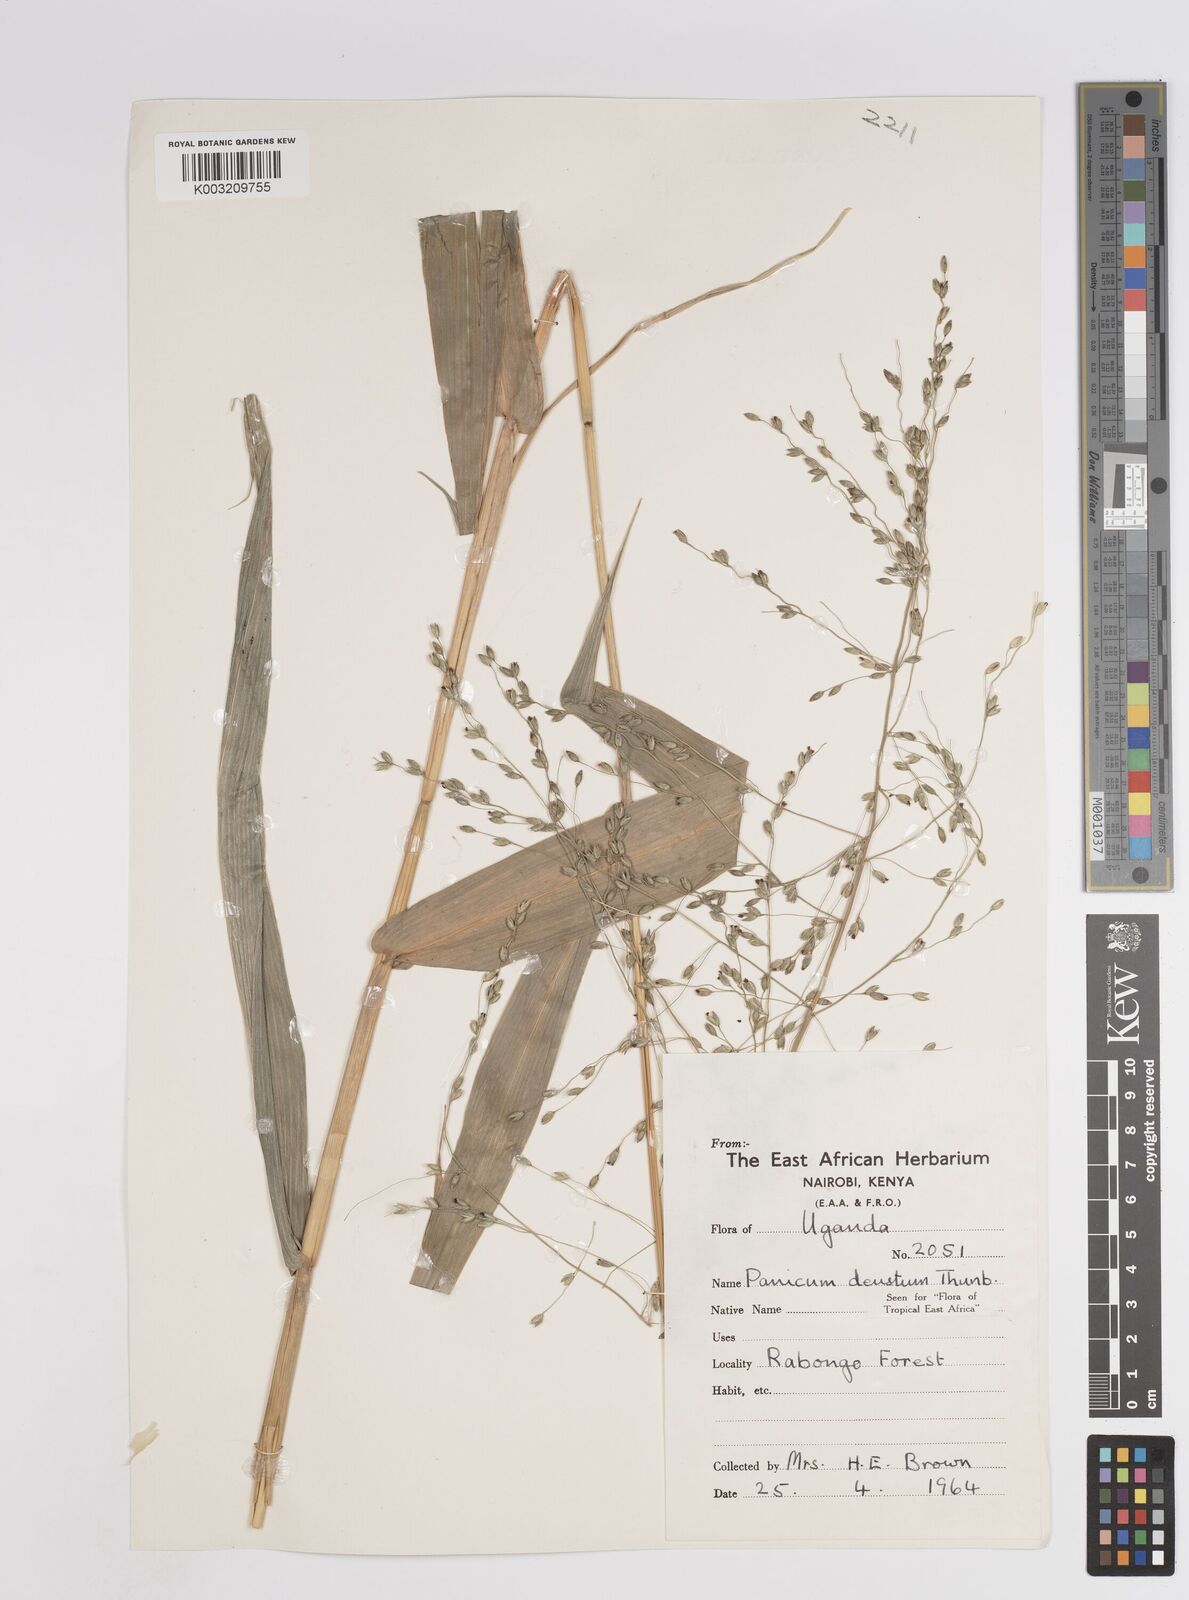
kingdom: Plantae
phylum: Tracheophyta
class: Liliopsida
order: Poales
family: Poaceae
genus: Panicum
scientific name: Panicum
